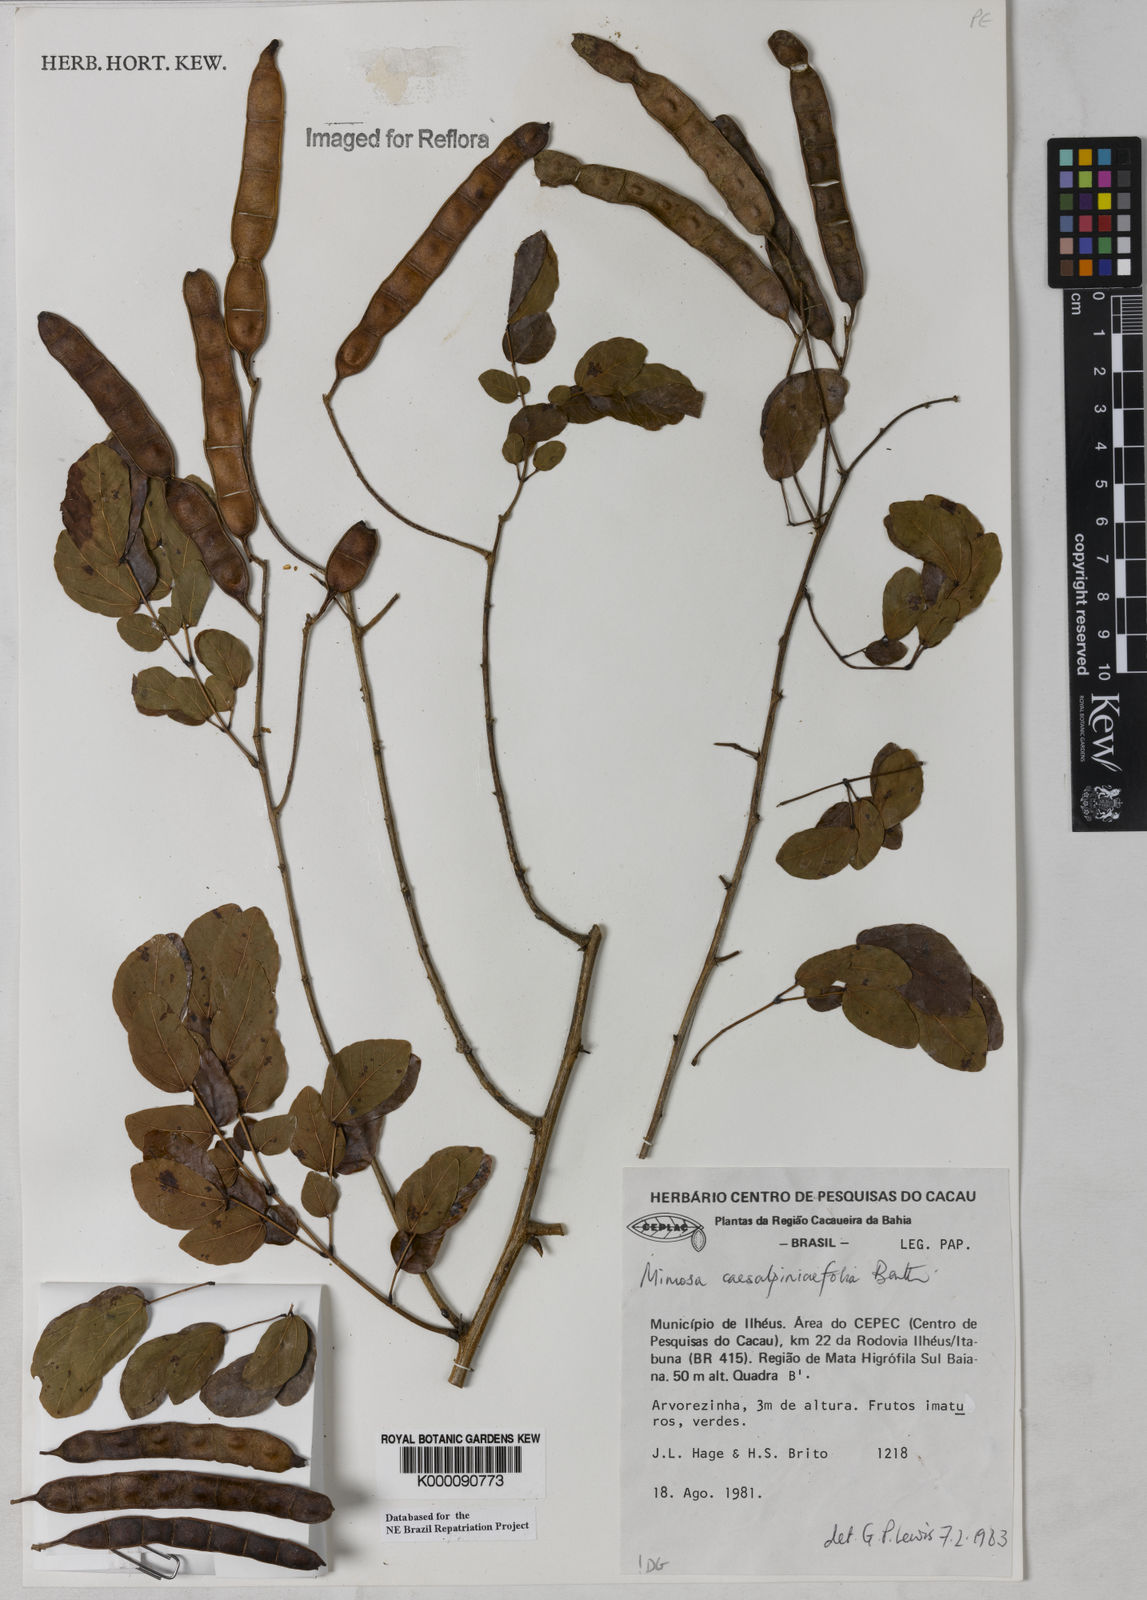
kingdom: Plantae
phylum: Tracheophyta
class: Magnoliopsida
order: Fabales
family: Fabaceae
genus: Mimosa
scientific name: Mimosa caesalpiniifolia
